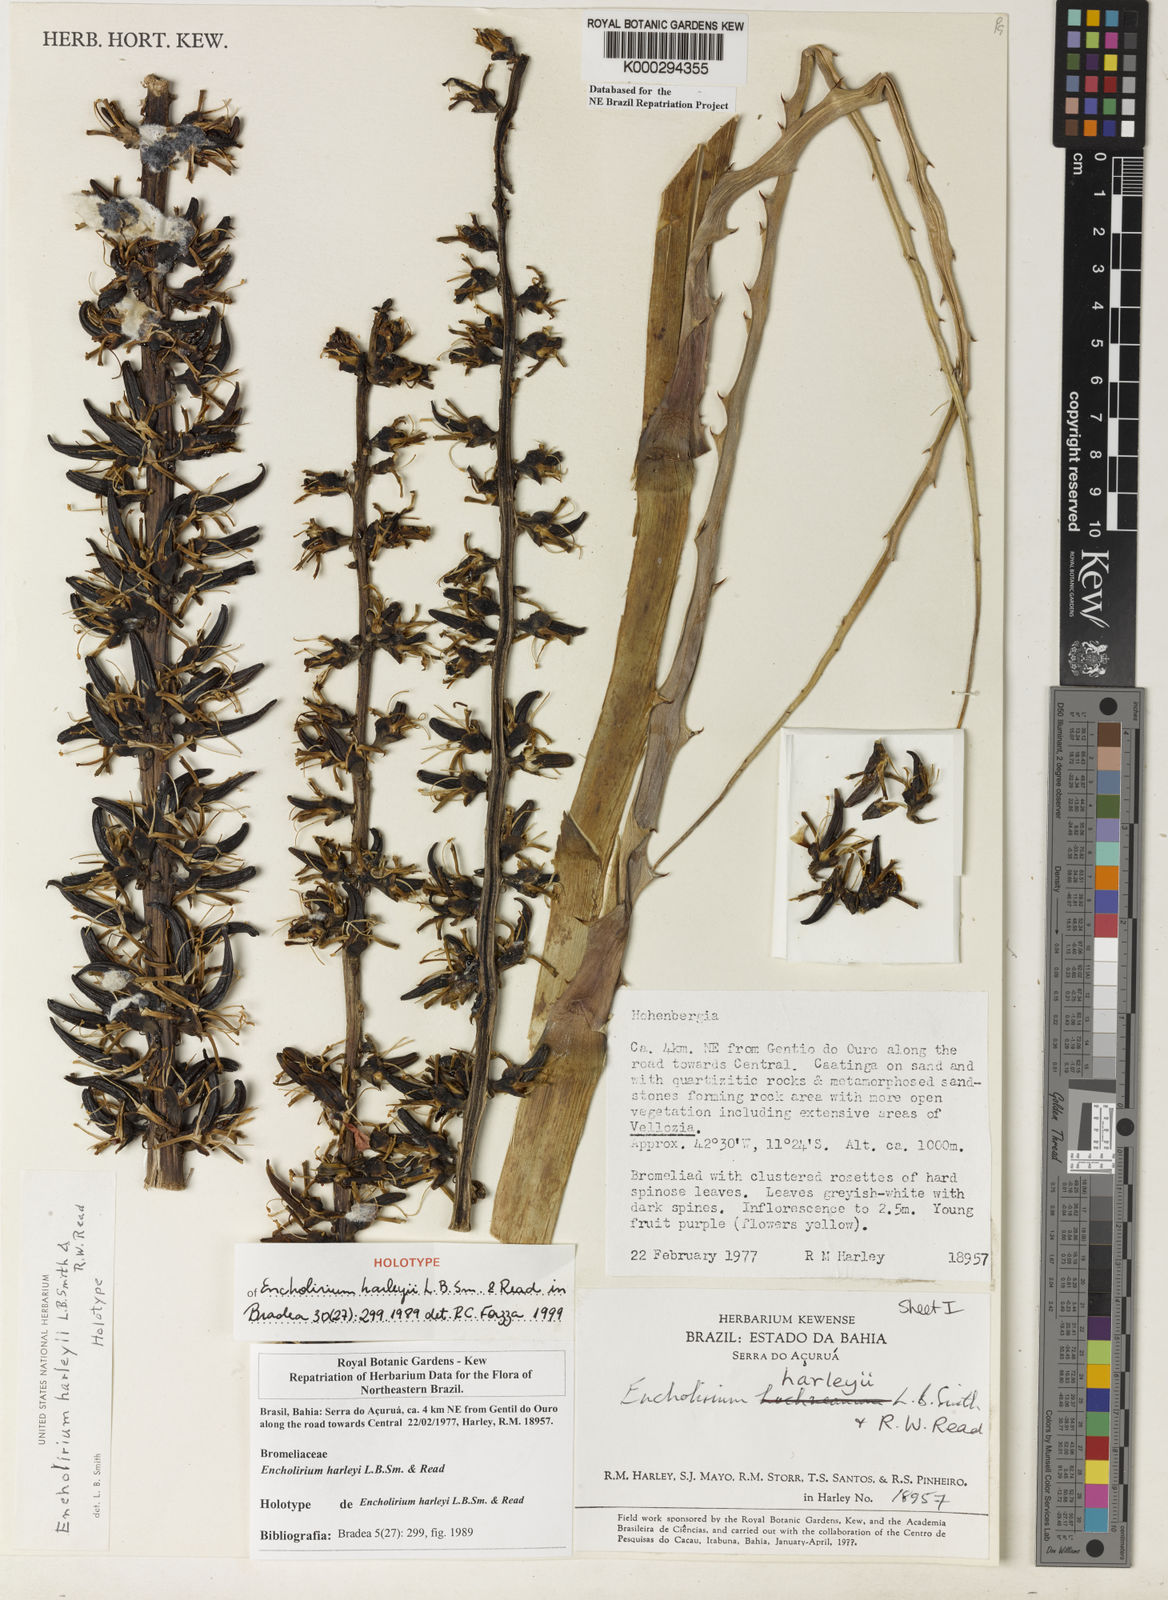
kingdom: Plantae
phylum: Tracheophyta
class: Liliopsida
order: Poales
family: Bromeliaceae
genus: Encholirium
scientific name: Encholirium spectabile
